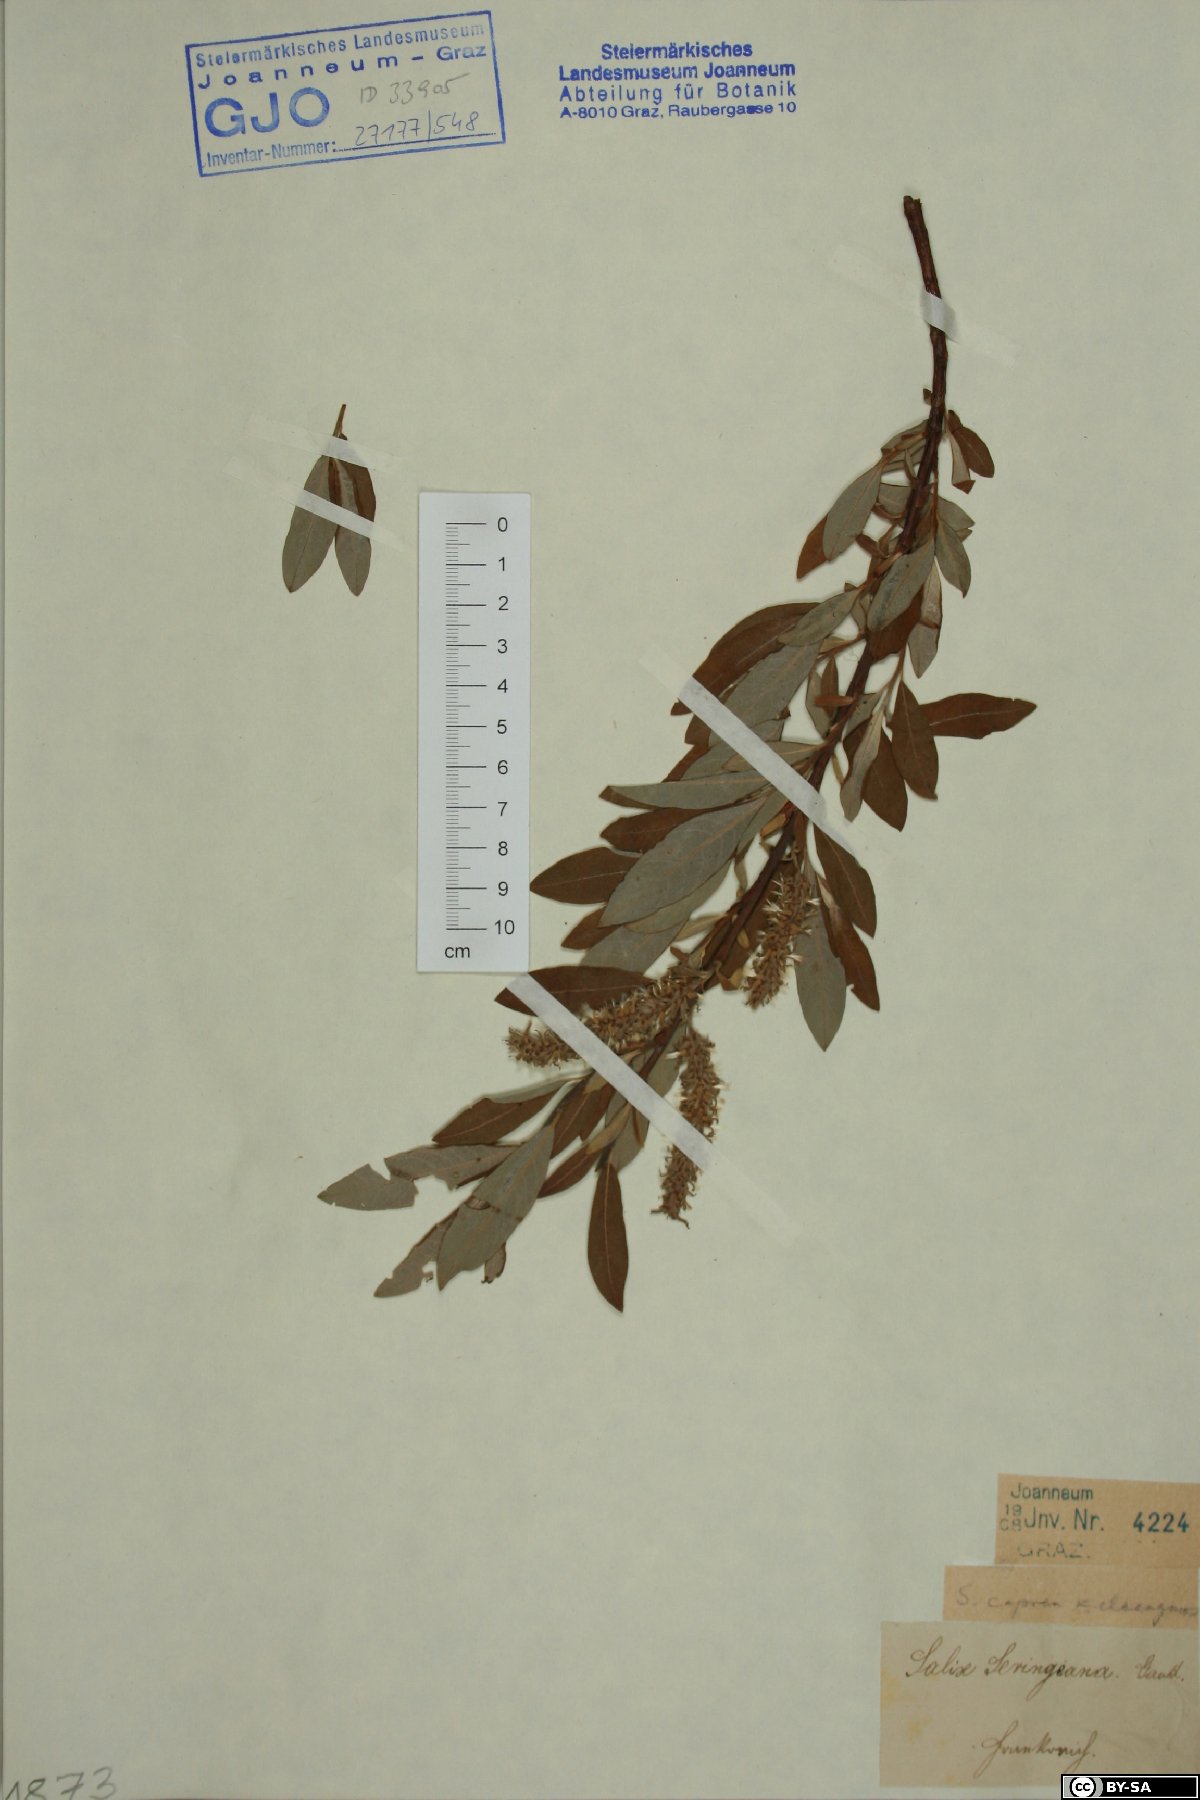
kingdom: Plantae
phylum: Tracheophyta
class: Magnoliopsida
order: Malpighiales
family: Salicaceae
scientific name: Salicaceae
